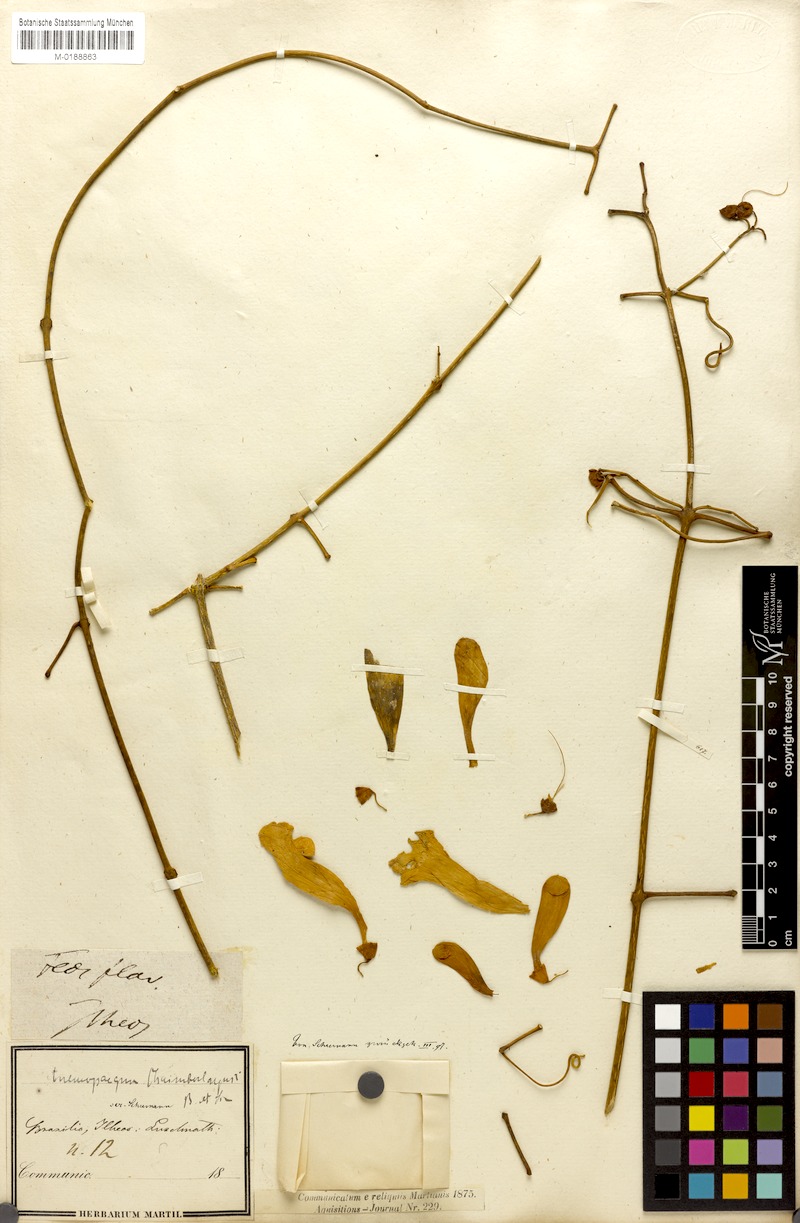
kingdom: Plantae
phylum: Tracheophyta
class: Magnoliopsida
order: Lamiales
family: Bignoniaceae
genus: Anemopaegma
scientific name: Anemopaegma chamberlaynii
